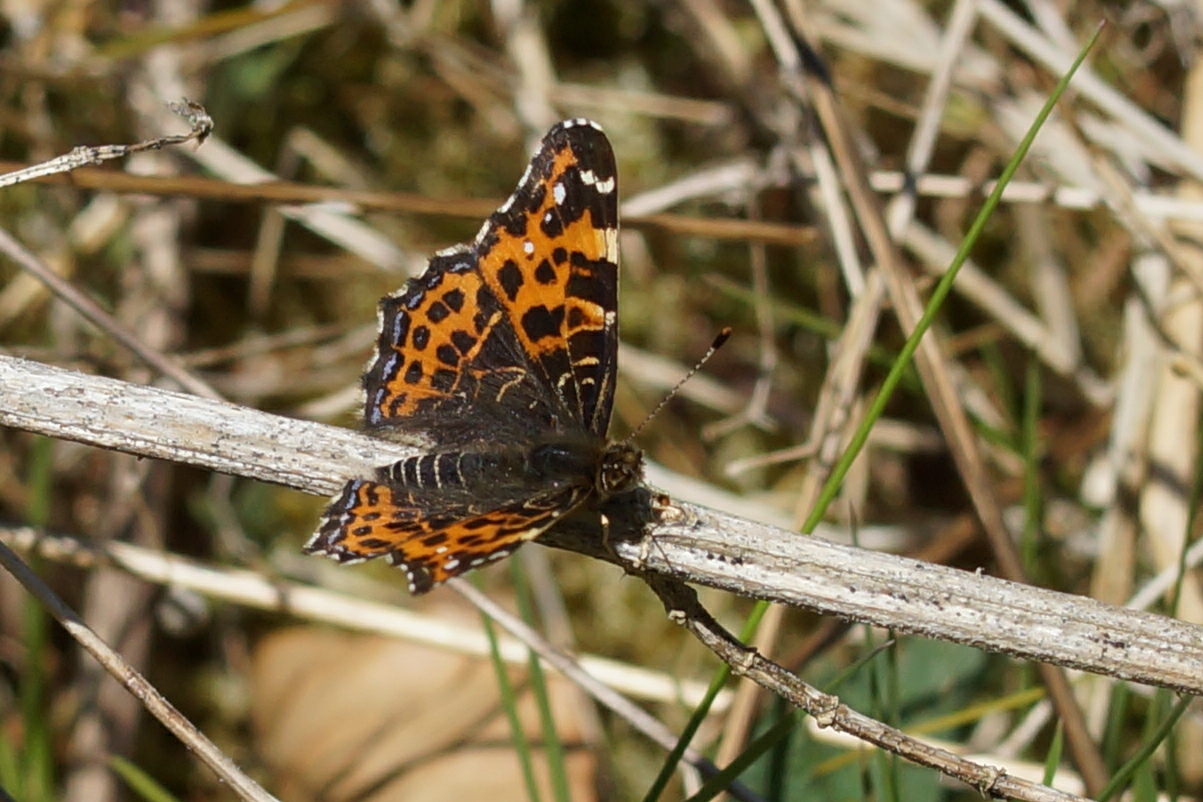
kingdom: Animalia
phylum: Arthropoda
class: Insecta
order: Lepidoptera
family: Nymphalidae
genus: Araschnia
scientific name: Araschnia levana
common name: Nældesommerfugl
